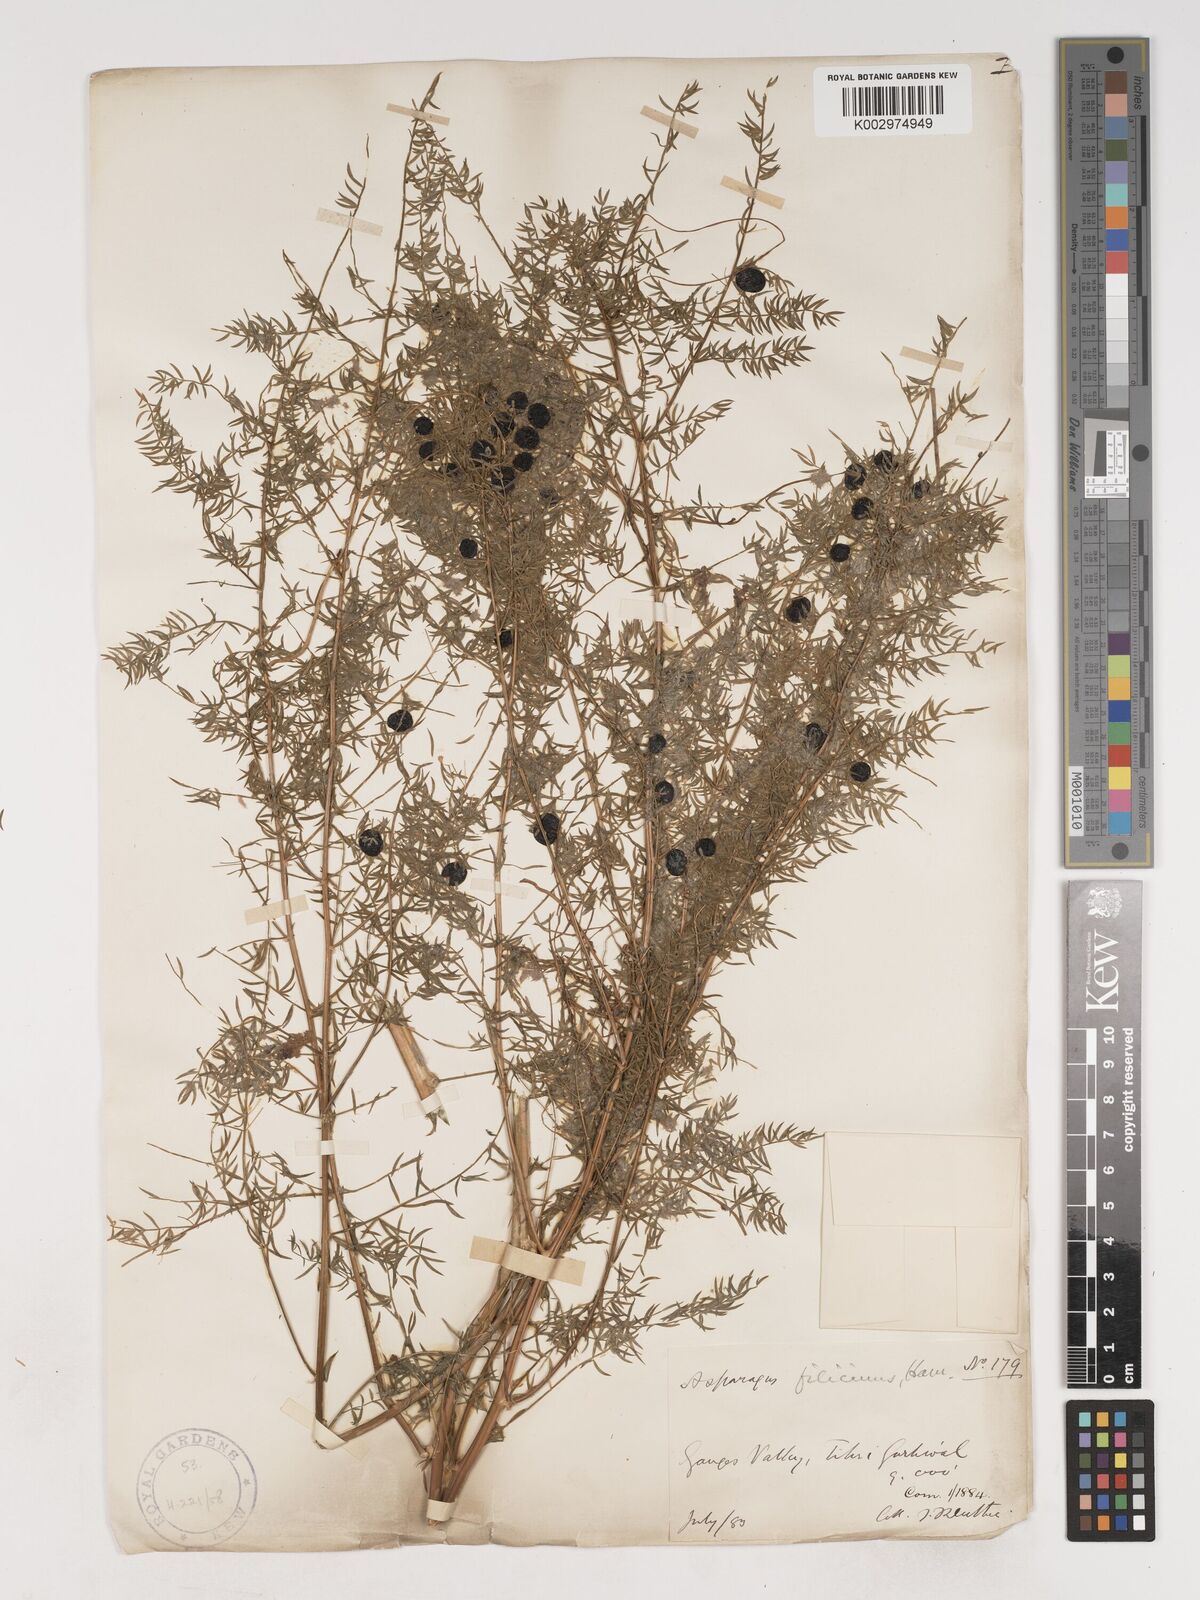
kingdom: Plantae
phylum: Tracheophyta
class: Liliopsida
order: Asparagales
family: Asparagaceae
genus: Asparagus
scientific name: Asparagus filicinus
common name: Fern asparagus
